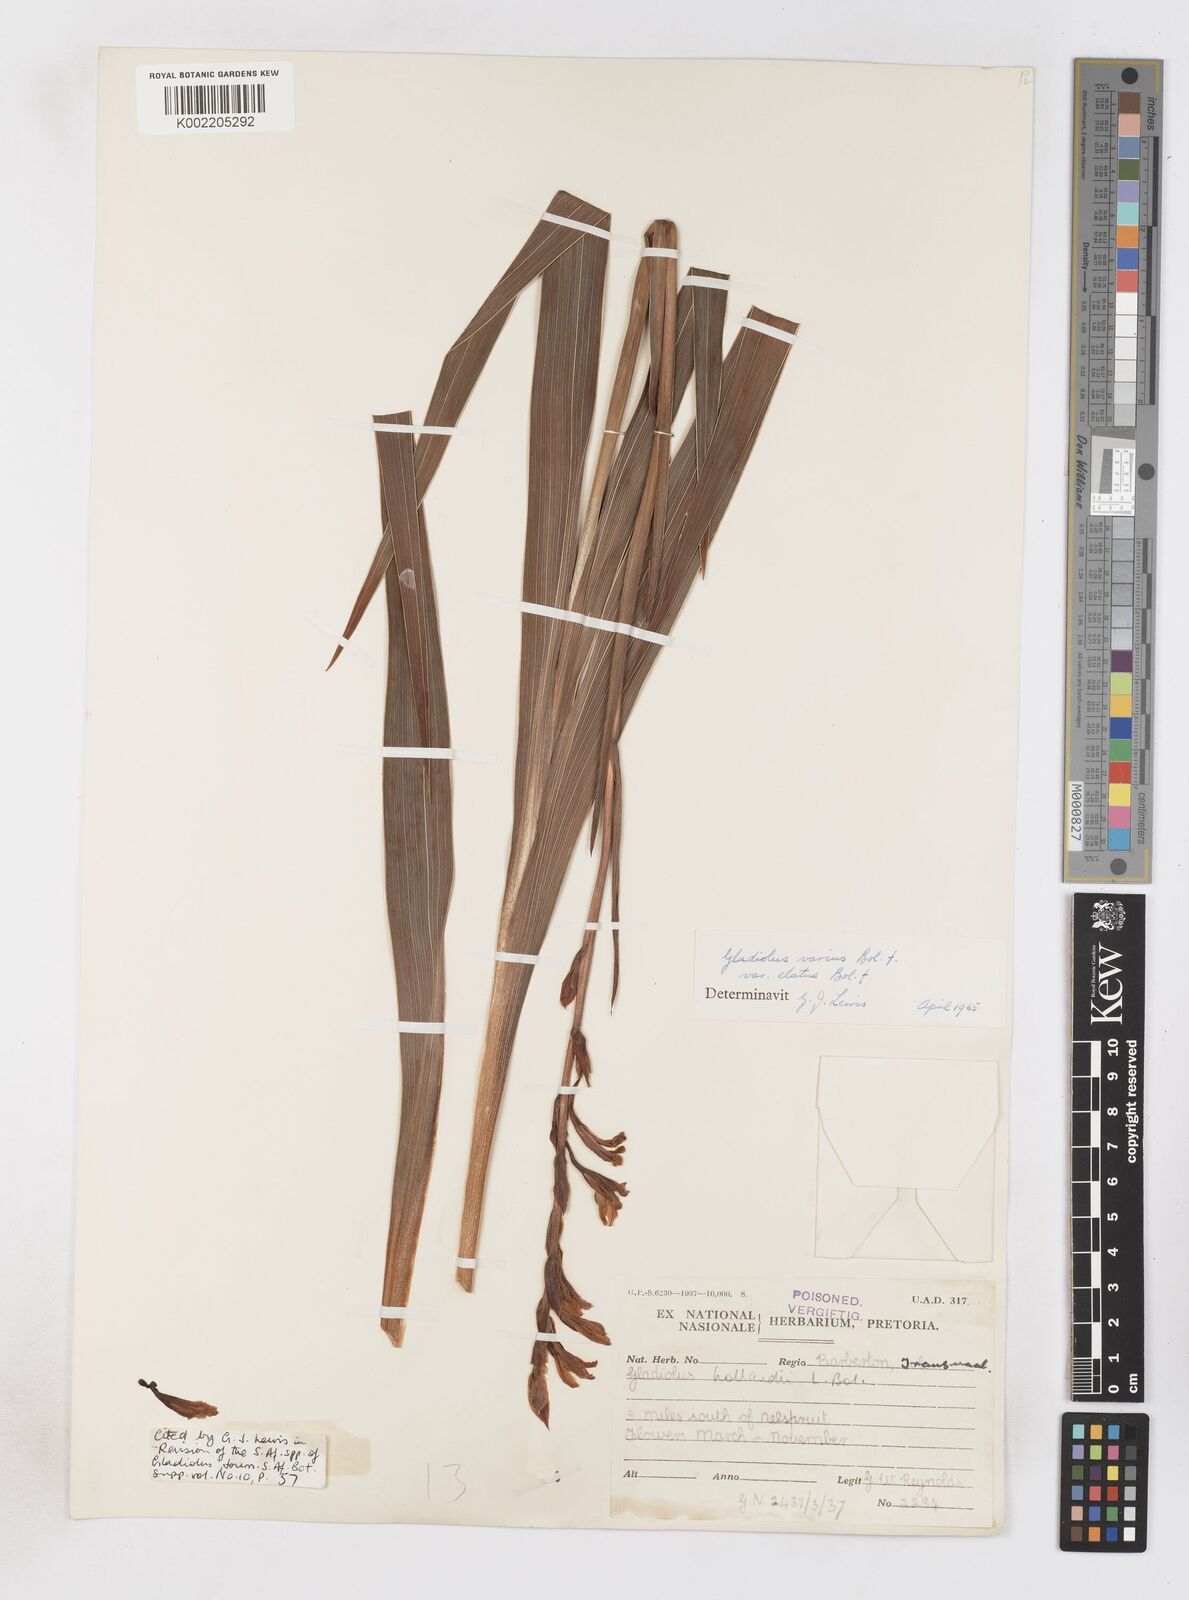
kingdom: Plantae
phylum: Tracheophyta
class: Liliopsida
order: Asparagales
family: Iridaceae
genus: Gladiolus
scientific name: Gladiolus hollandii
